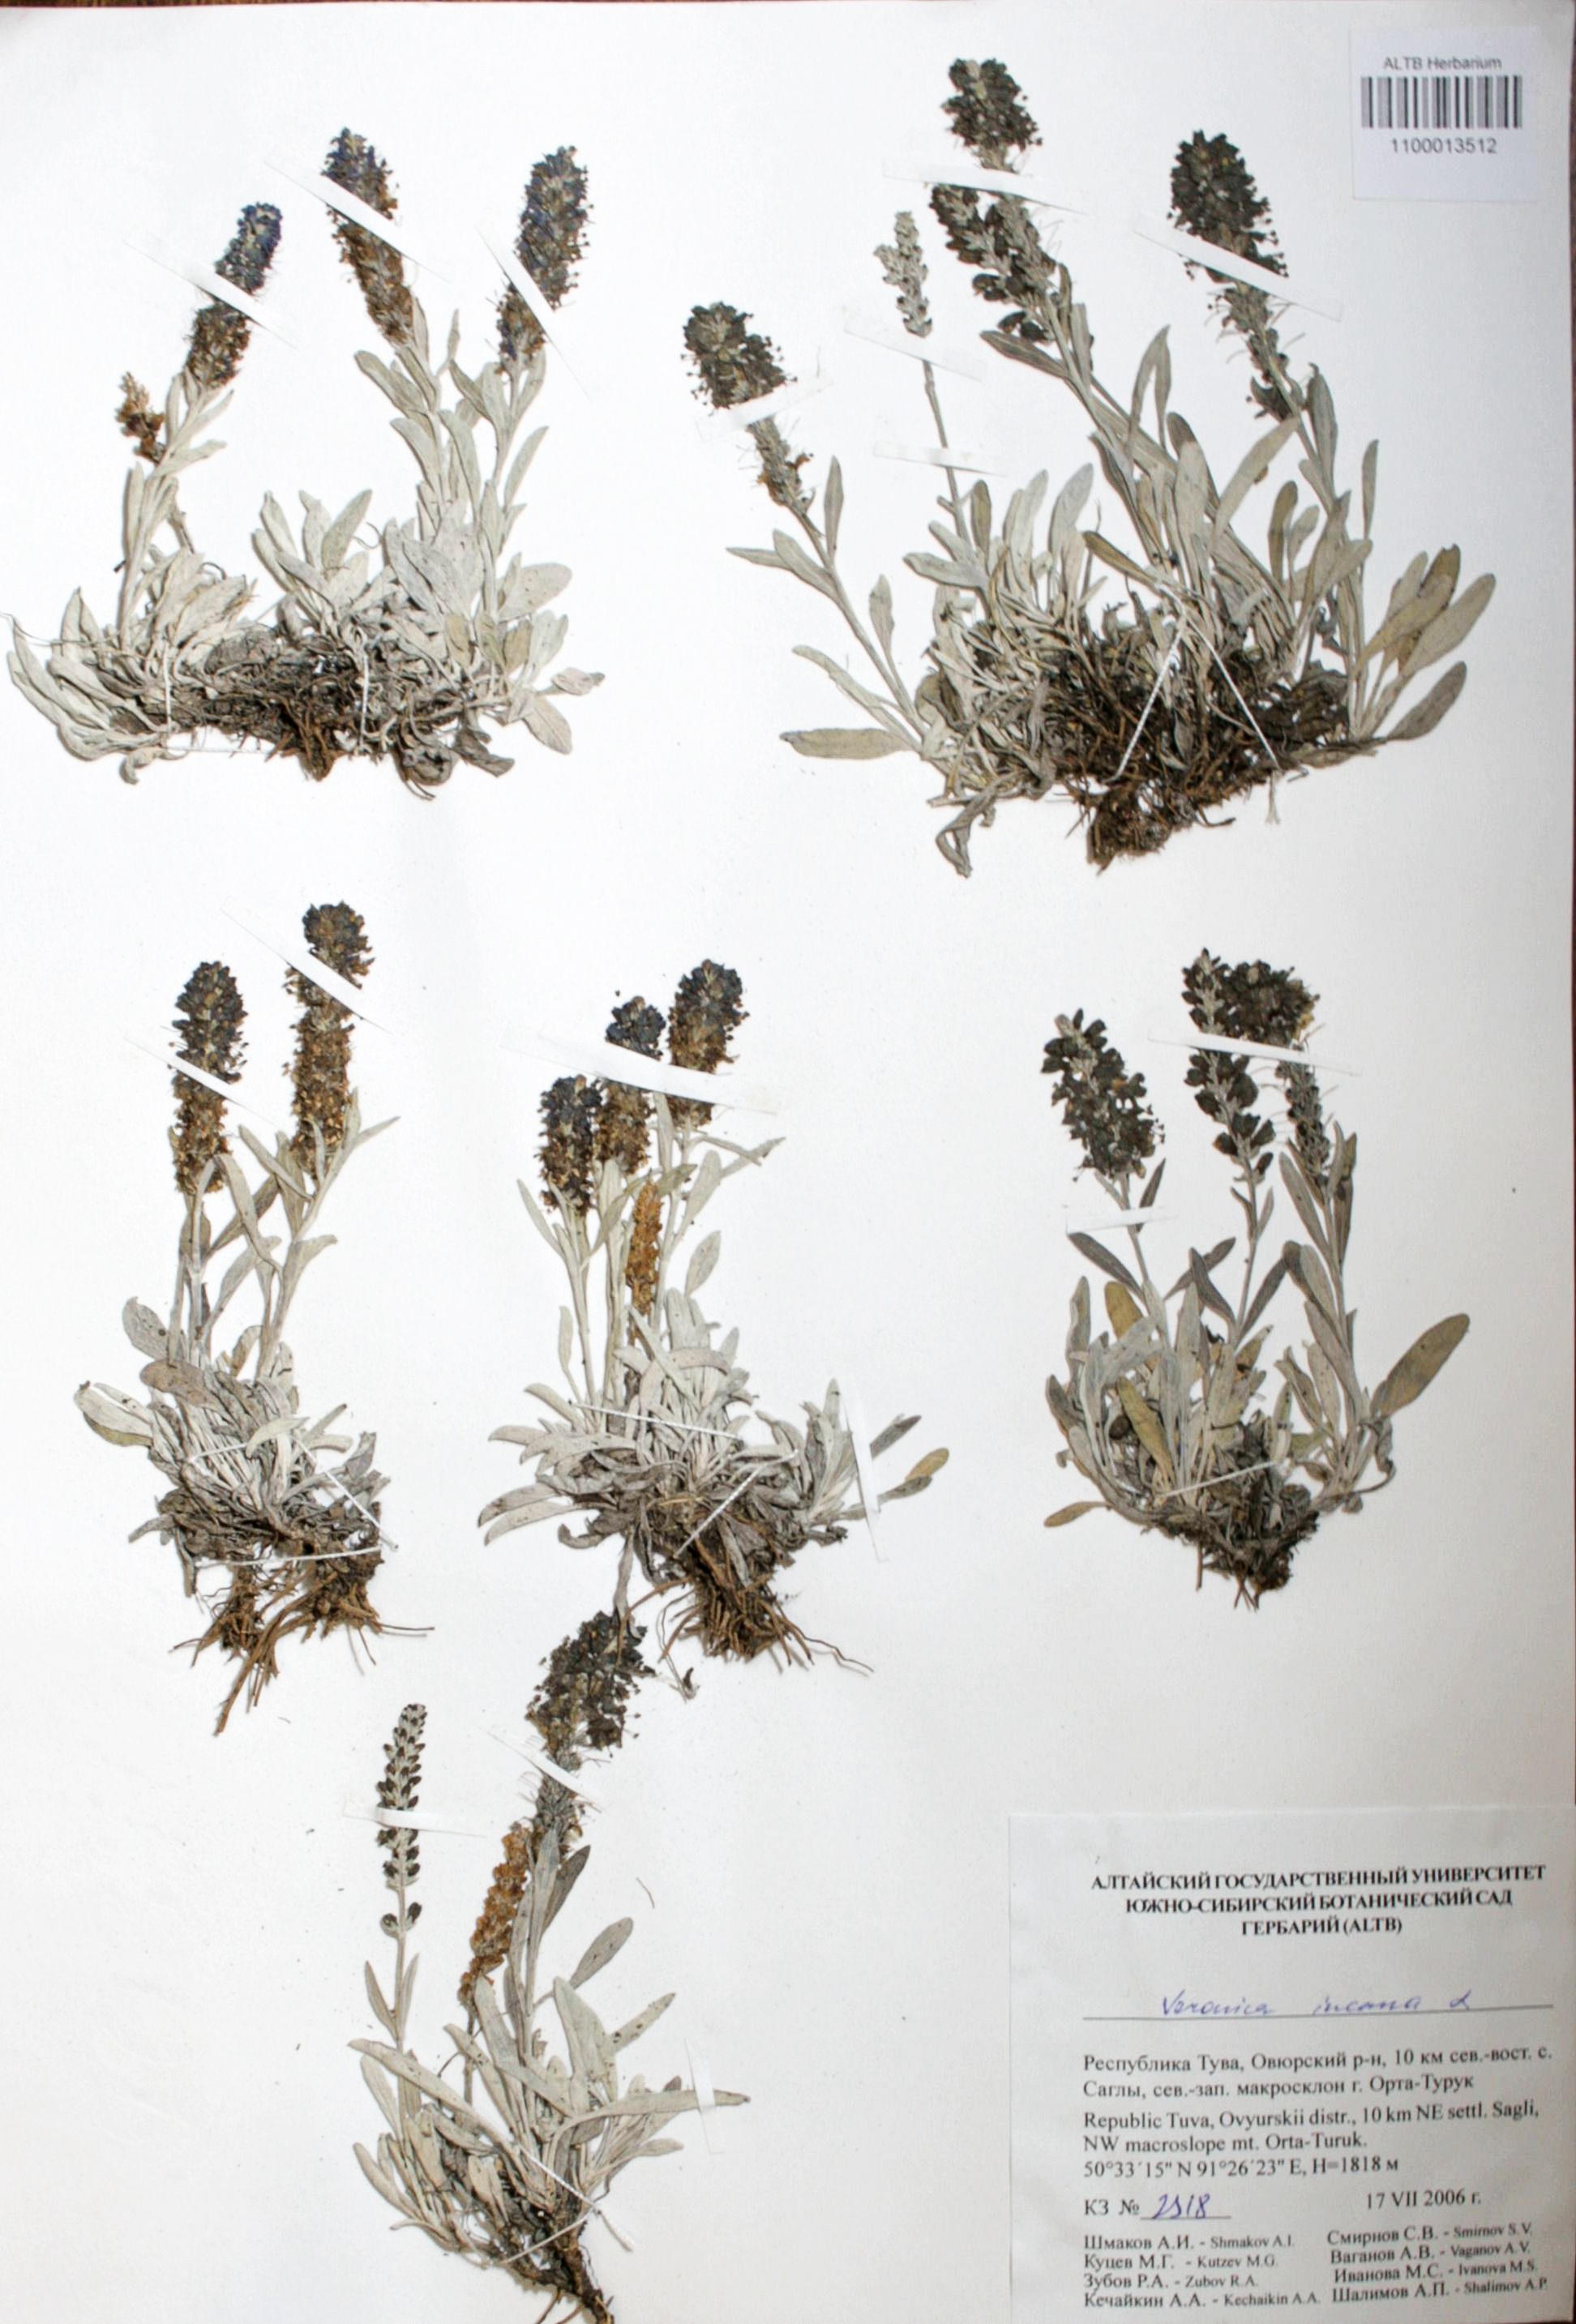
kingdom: Plantae
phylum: Tracheophyta
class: Magnoliopsida
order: Lamiales
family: Plantaginaceae
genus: Veronica
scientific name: Veronica incana
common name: Silver speedwell
